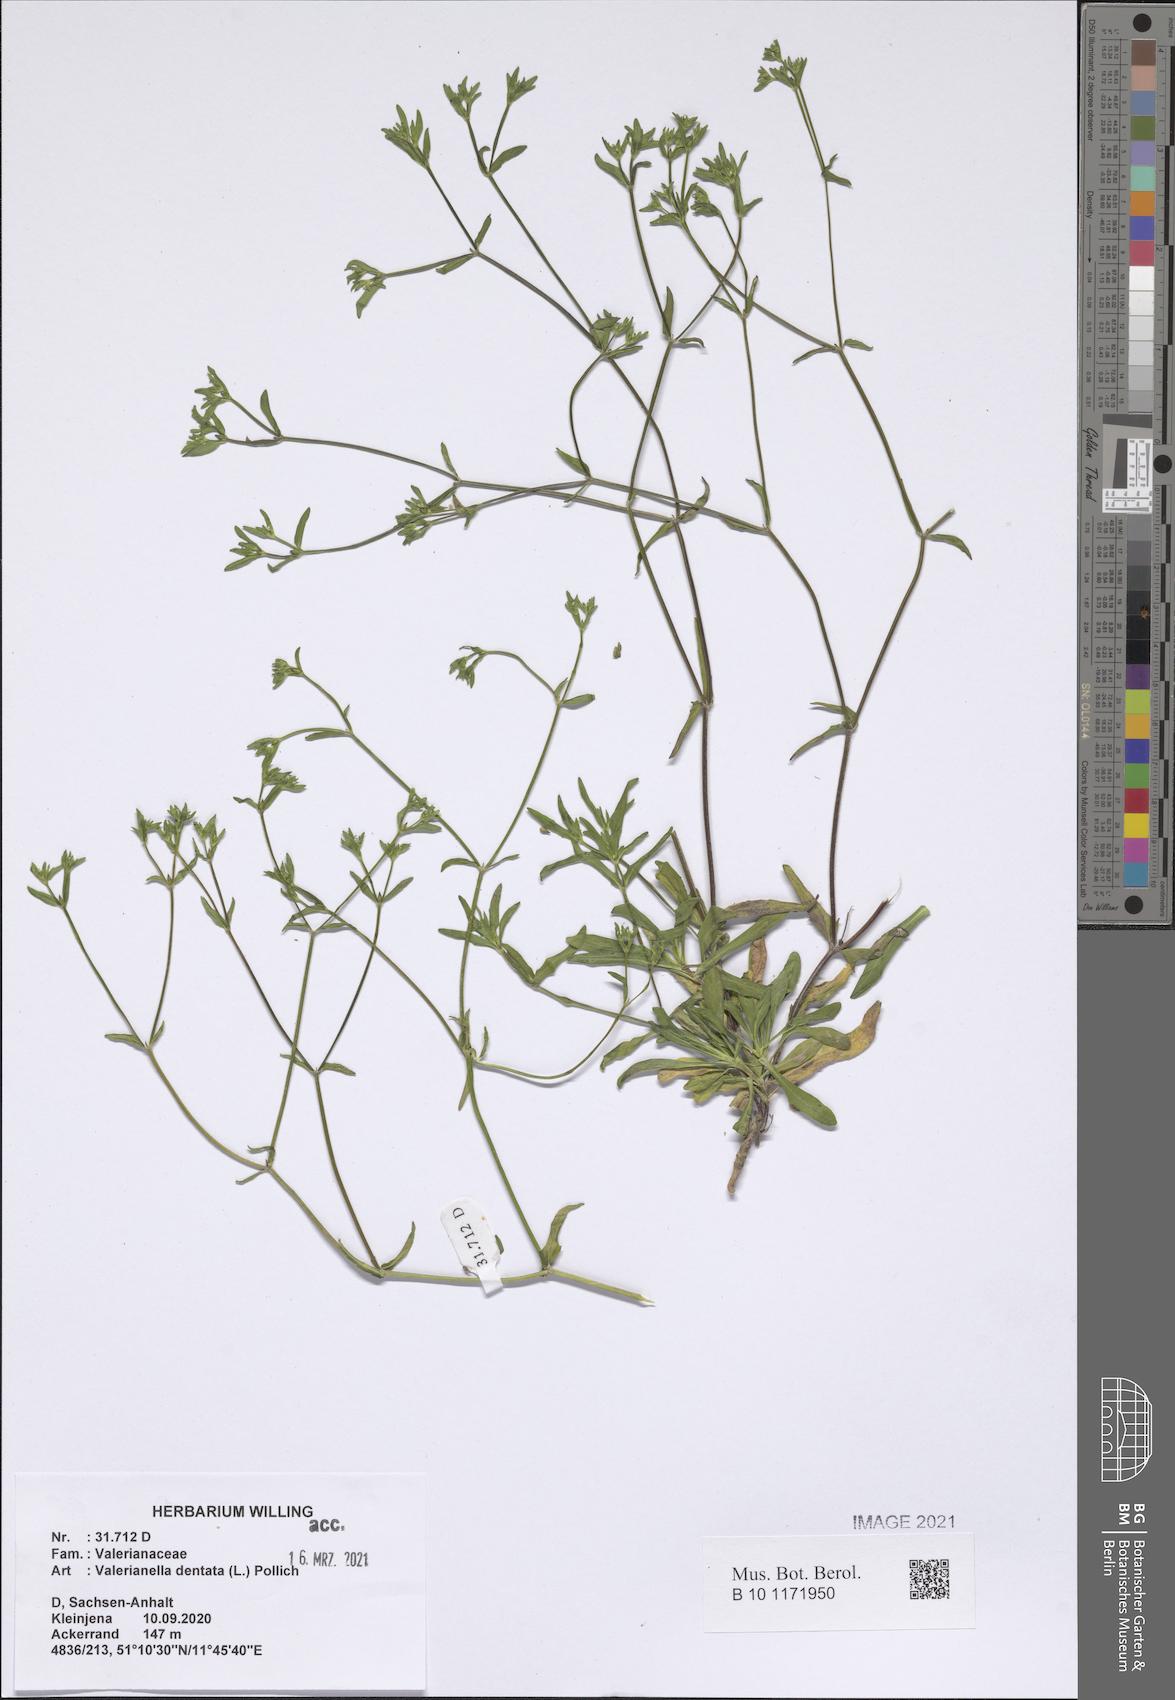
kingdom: Plantae
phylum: Tracheophyta
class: Magnoliopsida
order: Dipsacales
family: Caprifoliaceae
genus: Valerianella
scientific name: Valerianella dentata
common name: Narrow-fruited cornsalad
